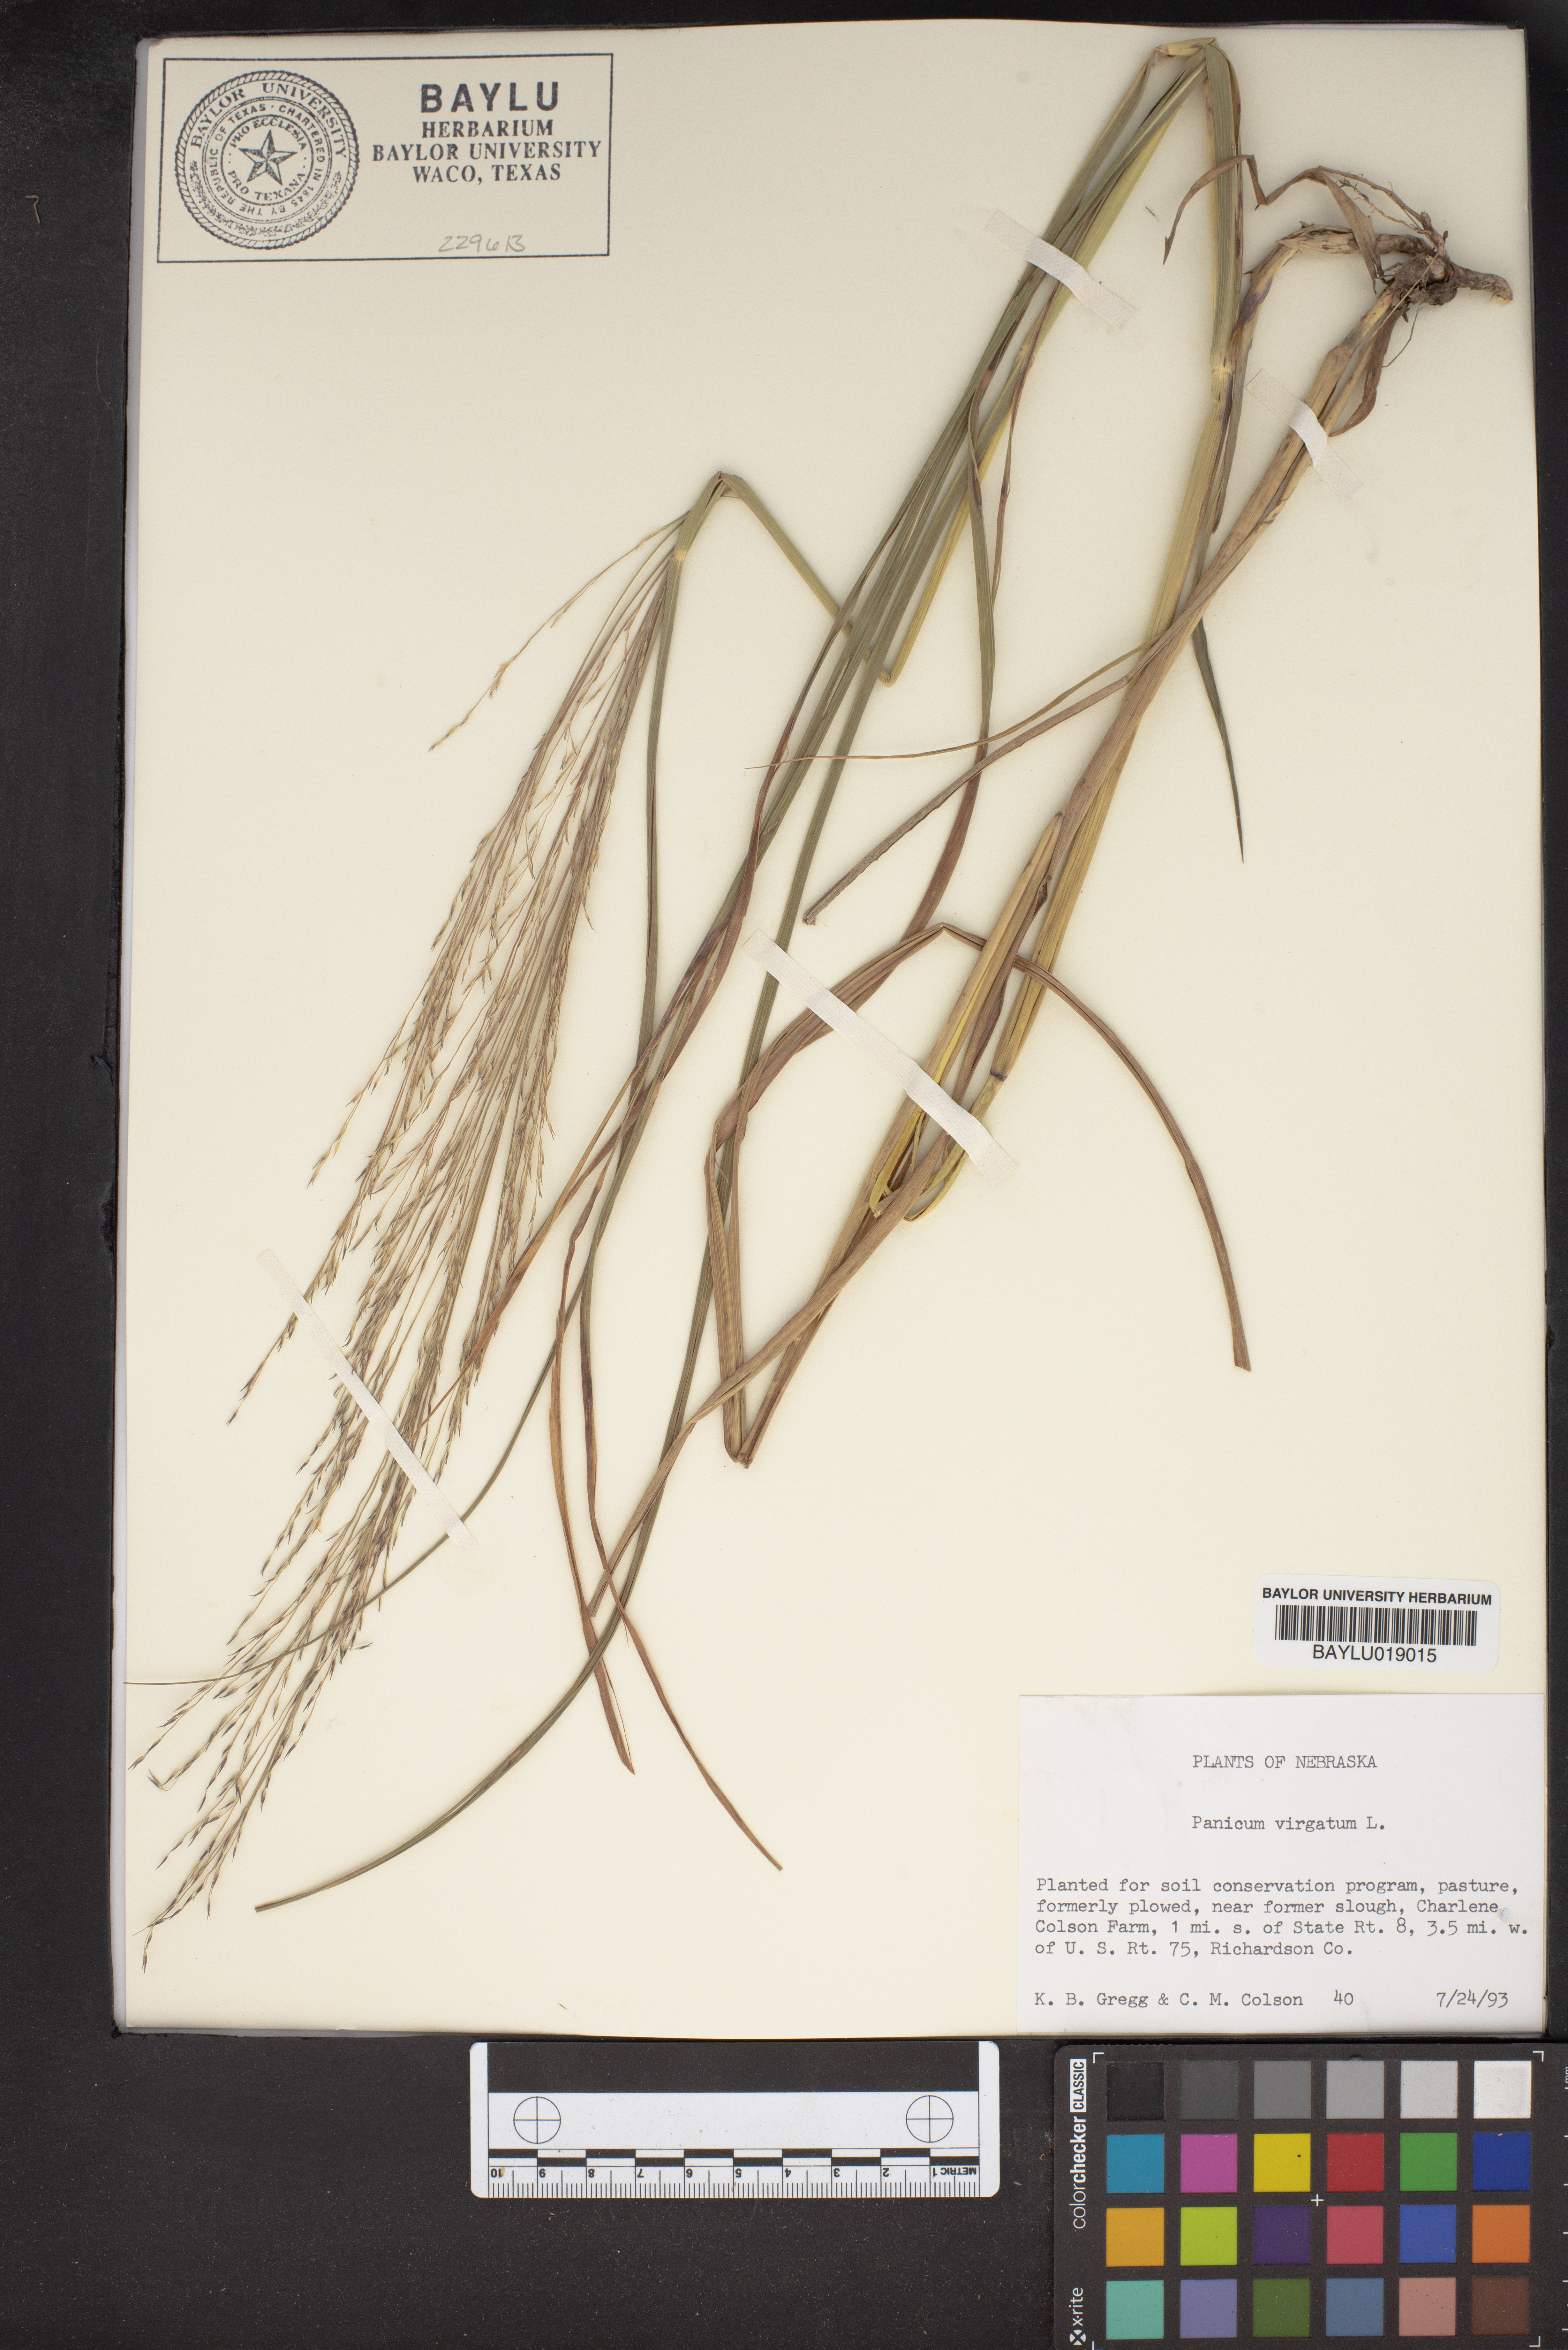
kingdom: Plantae
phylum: Tracheophyta
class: Liliopsida
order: Poales
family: Poaceae
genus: Panicum
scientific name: Panicum virgatum
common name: Switchgrass
